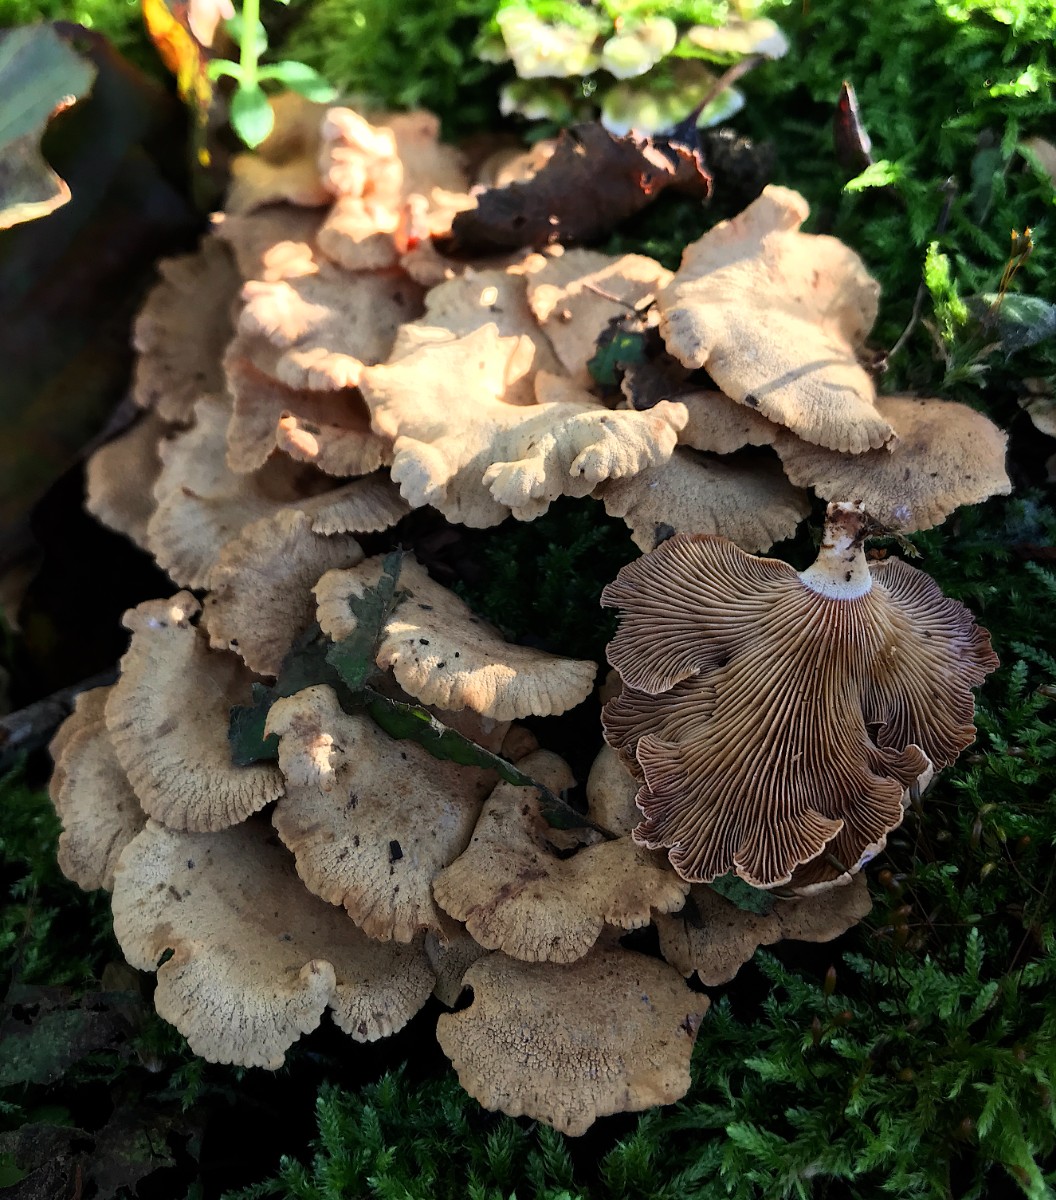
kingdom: Fungi
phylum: Basidiomycota
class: Agaricomycetes
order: Agaricales
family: Mycenaceae
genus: Panellus
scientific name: Panellus stipticus
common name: kliddet epaulethat
